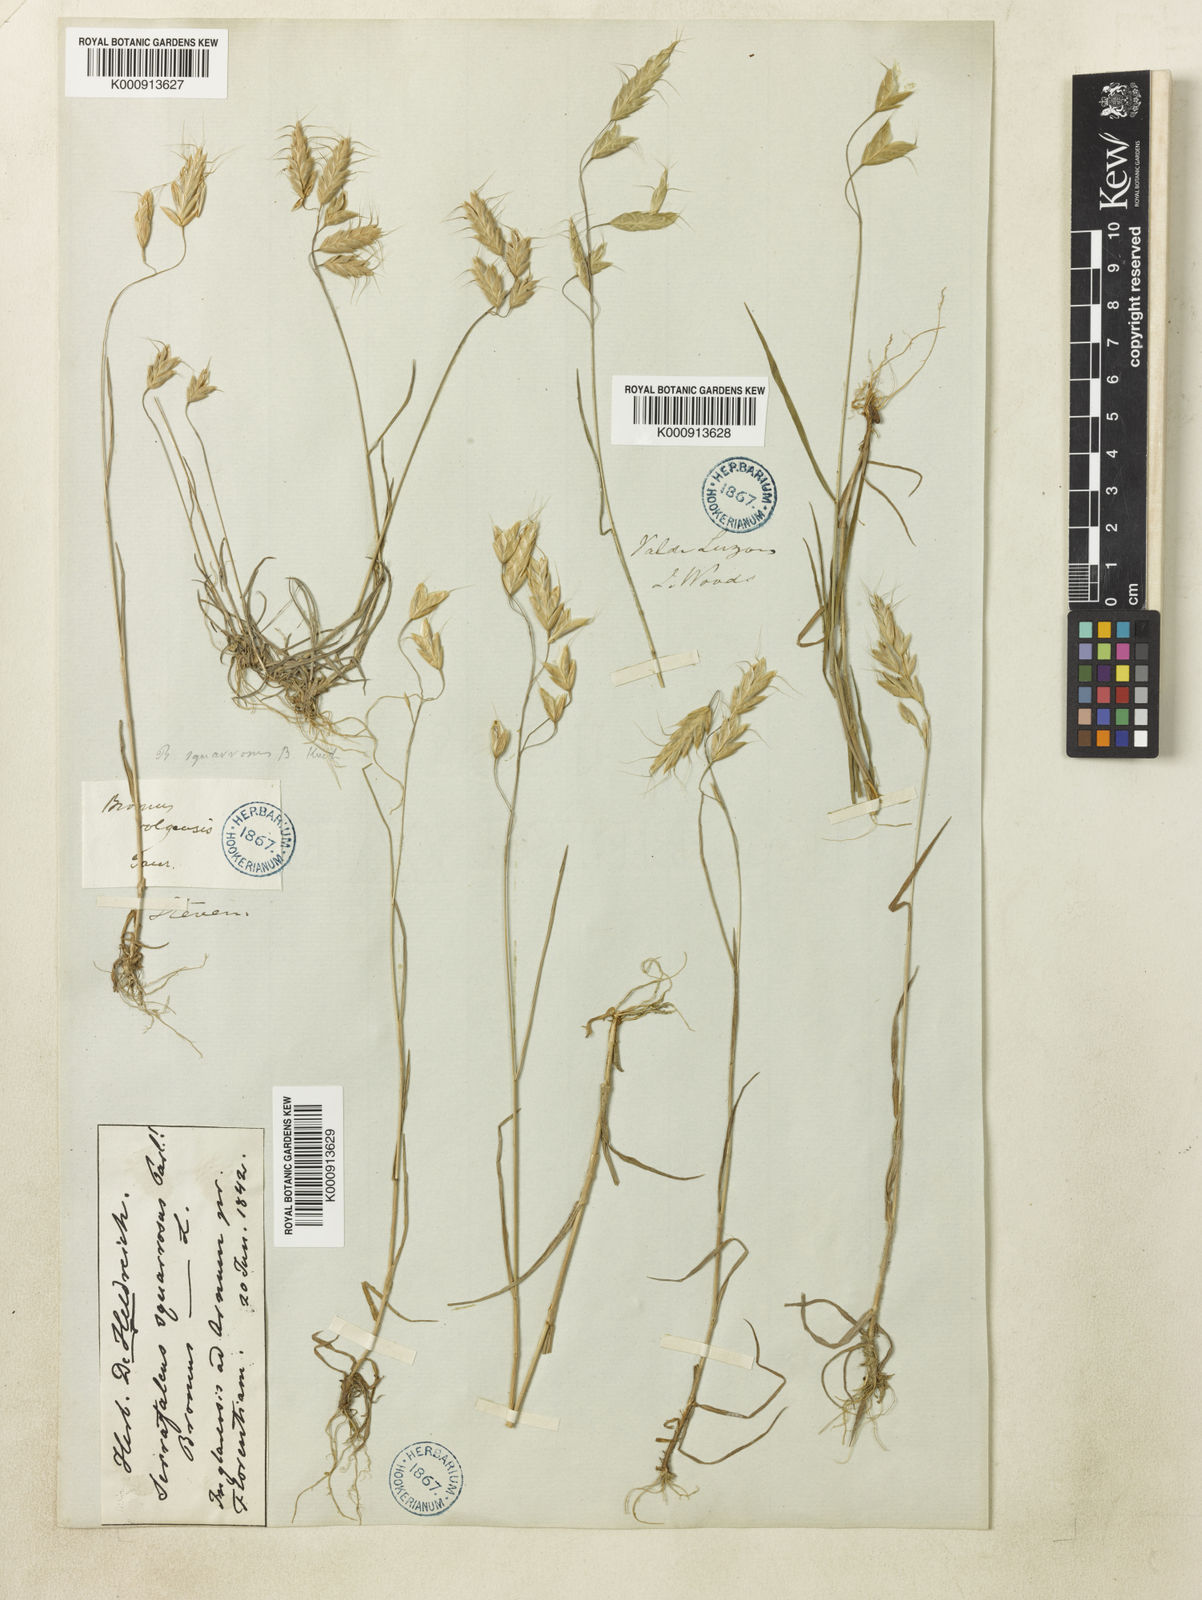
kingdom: Plantae
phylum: Tracheophyta
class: Liliopsida
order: Poales
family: Poaceae
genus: Bromus
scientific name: Bromus squarrosus
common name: Corn brome
